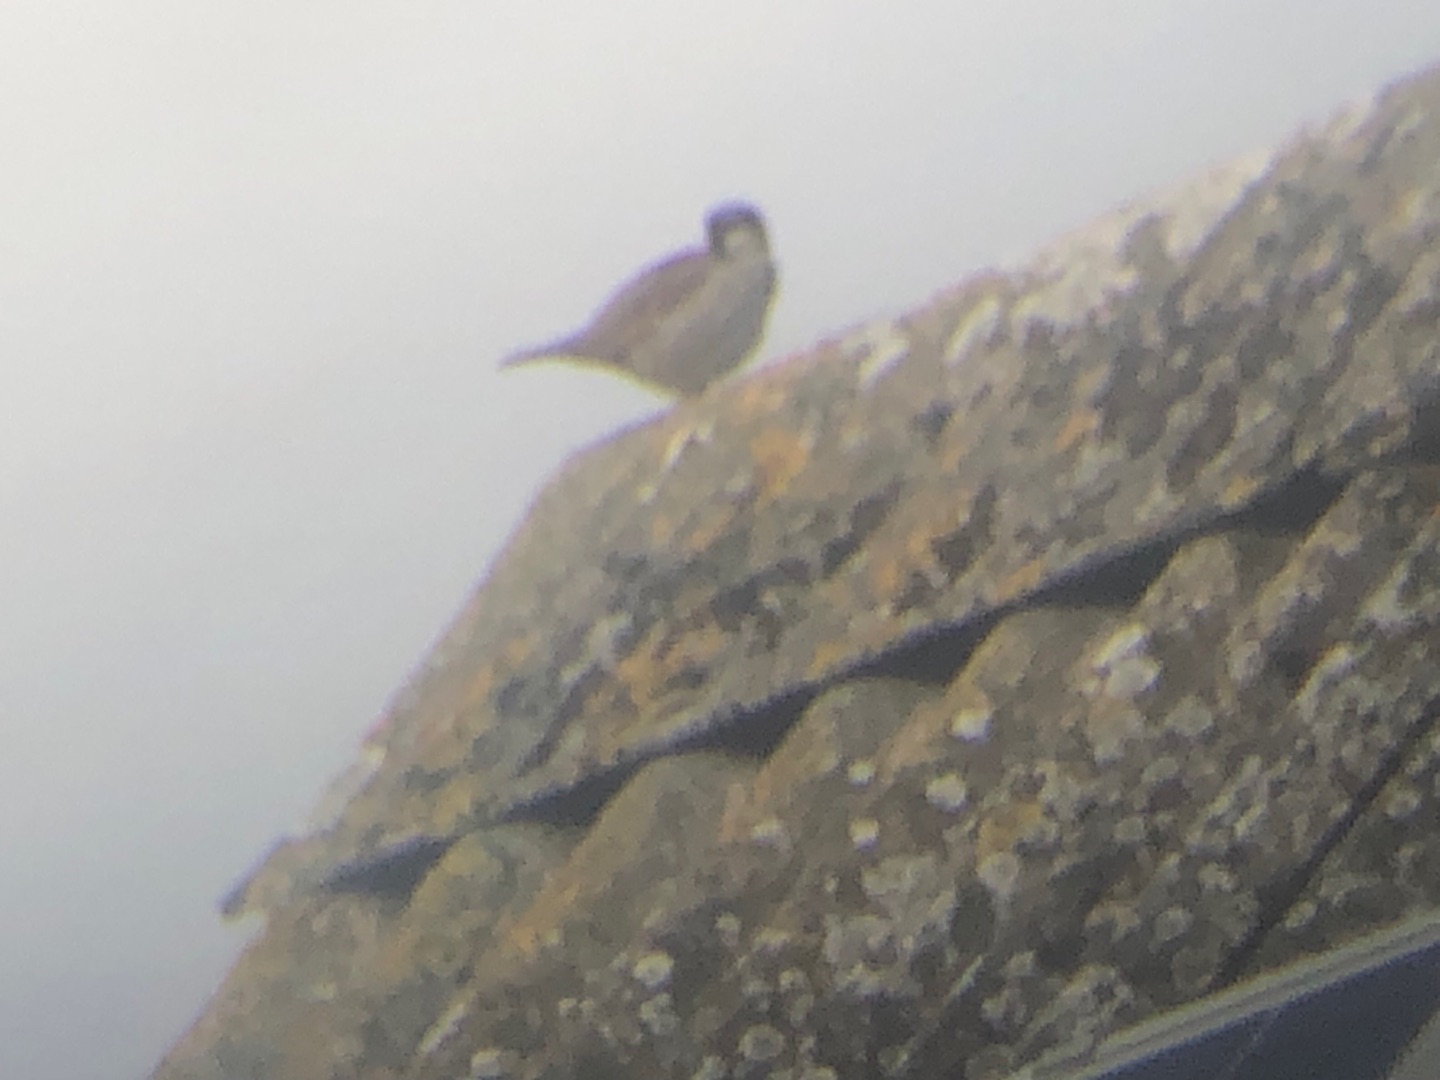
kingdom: Animalia
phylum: Chordata
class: Aves
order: Passeriformes
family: Passeridae
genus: Passer
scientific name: Passer montanus
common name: Skovspurv
